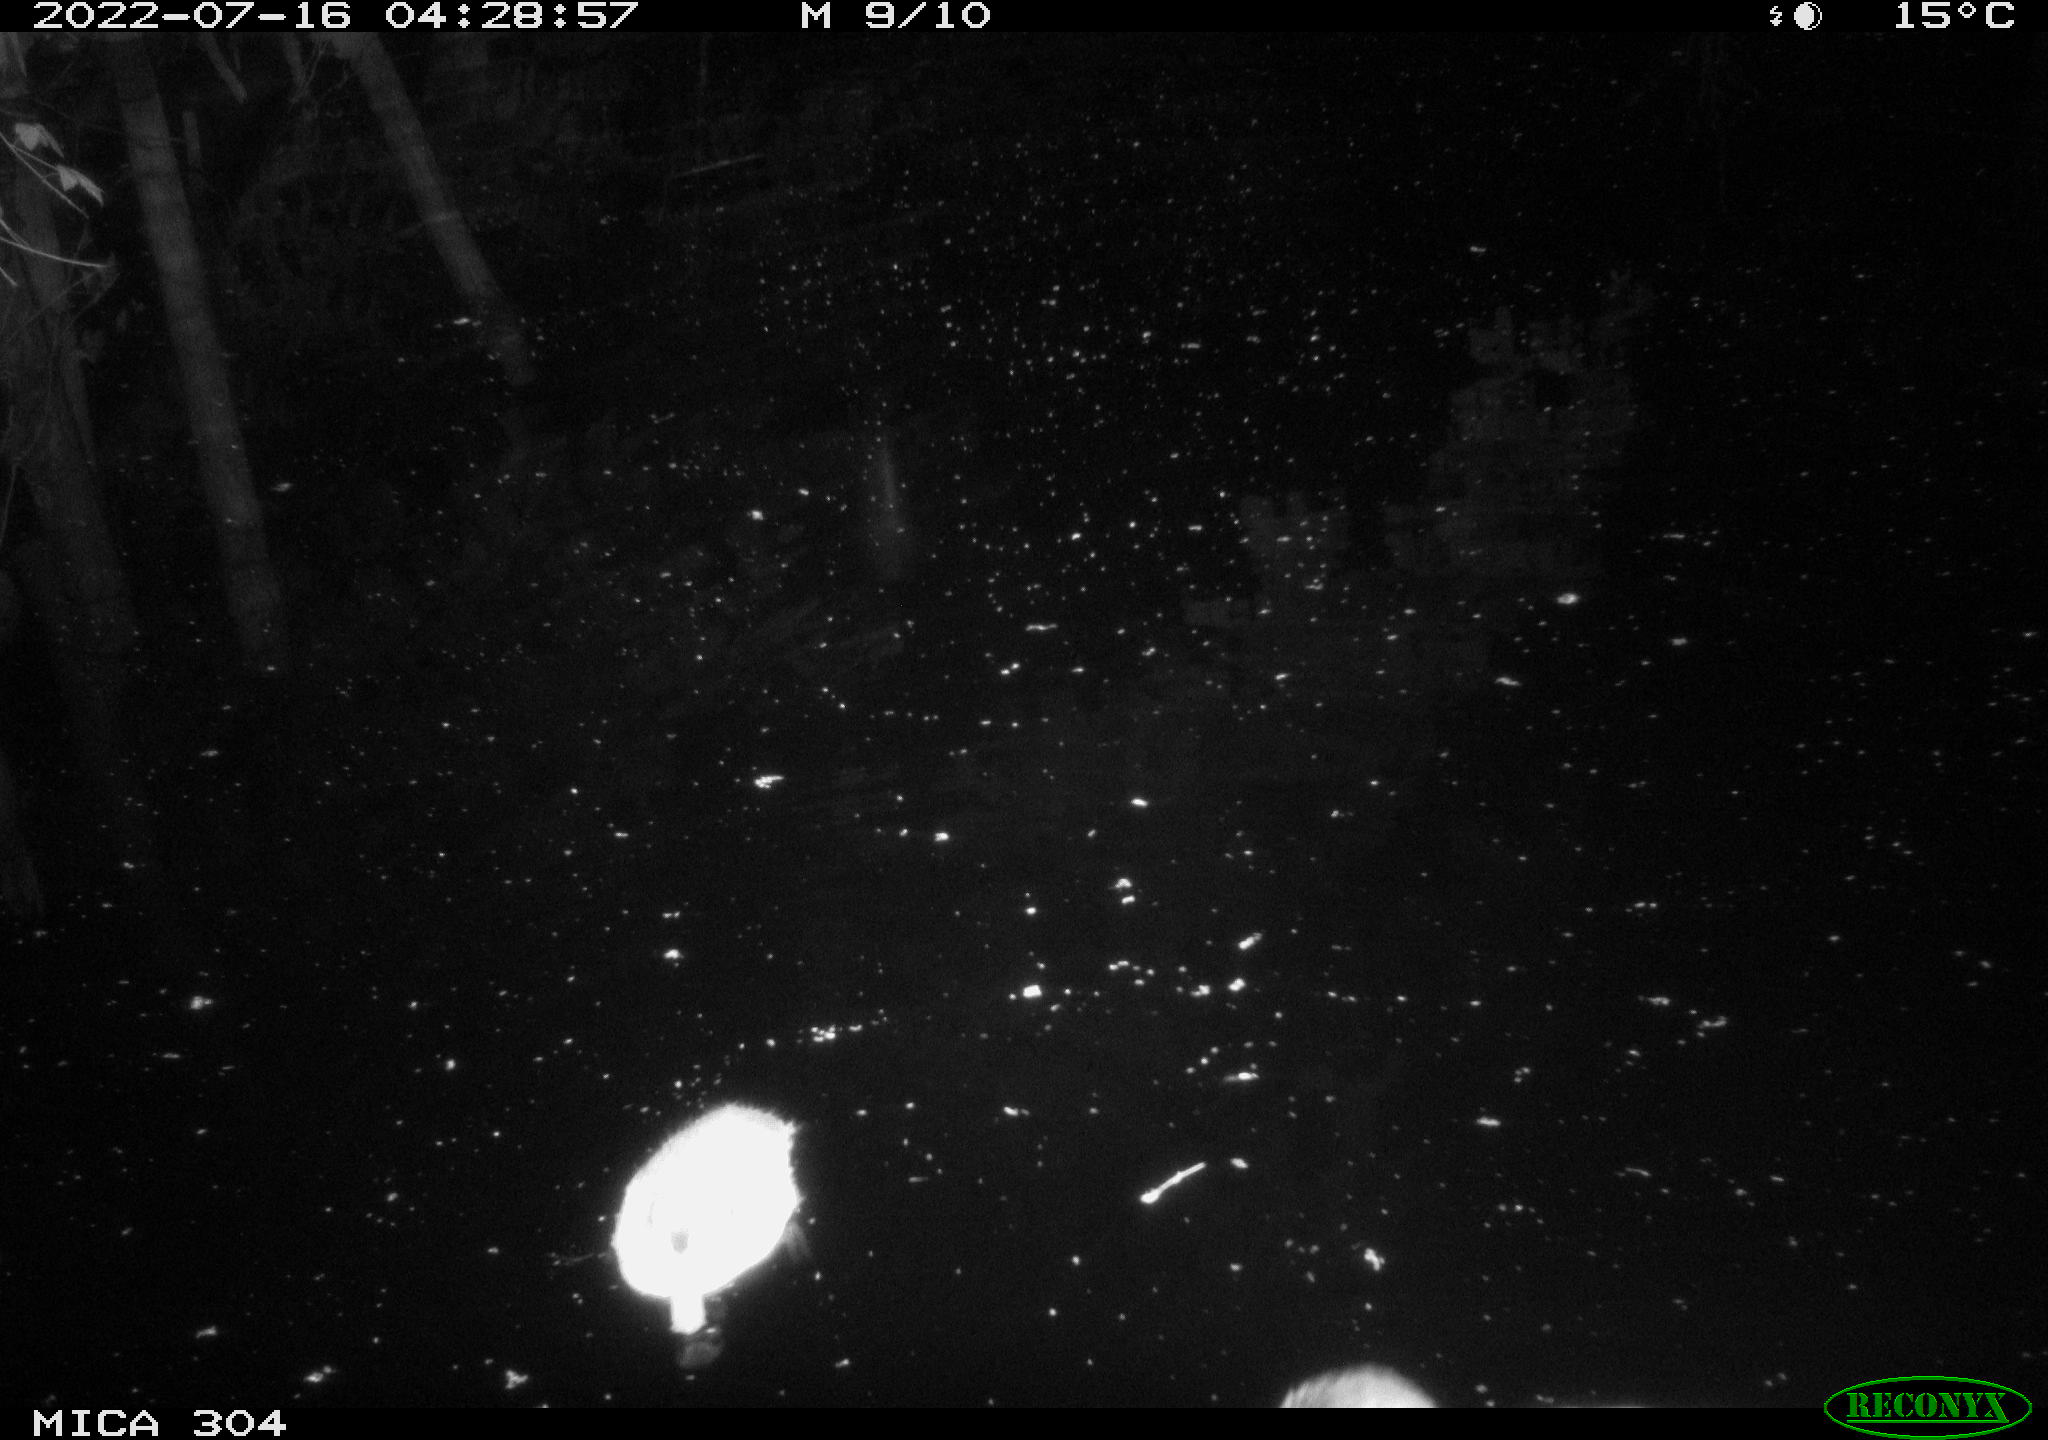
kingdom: Animalia
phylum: Chordata
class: Aves
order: Anseriformes
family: Anatidae
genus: Anas
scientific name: Anas platyrhynchos
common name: Mallard
